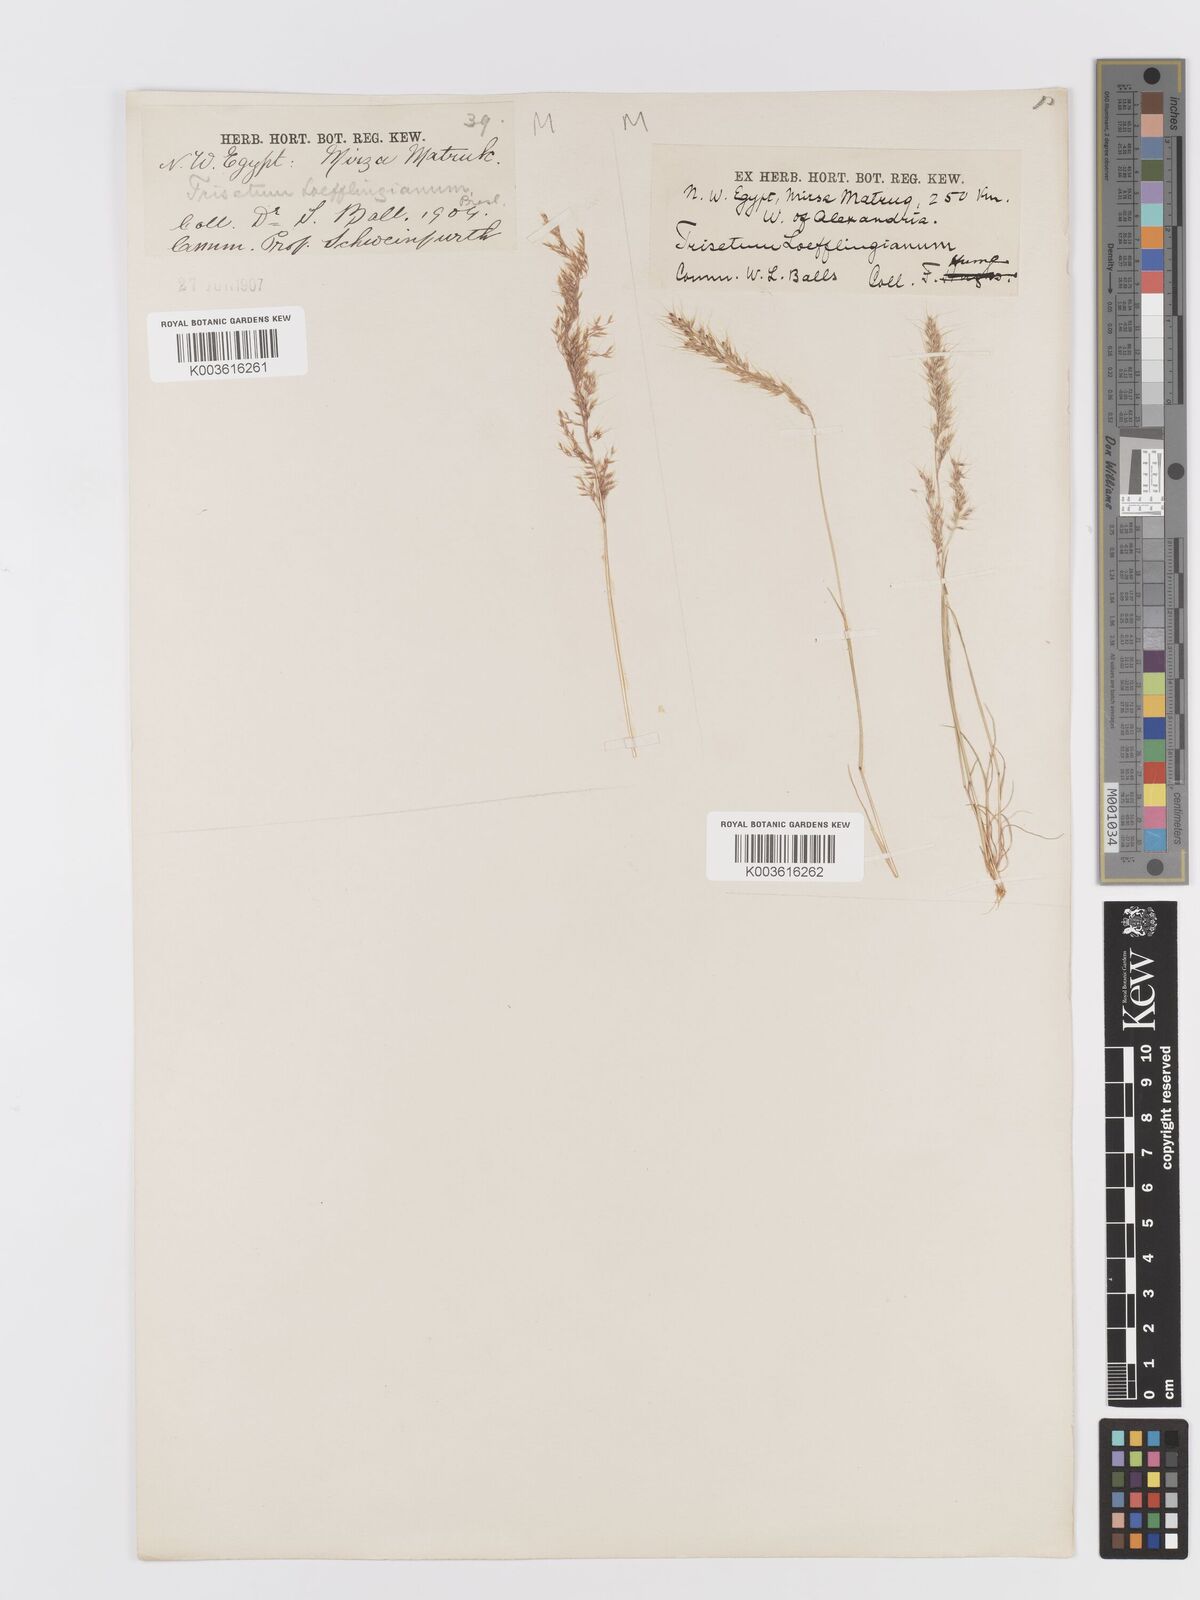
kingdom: Plantae
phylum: Tracheophyta
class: Liliopsida
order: Poales
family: Poaceae
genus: Trisetaria
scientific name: Trisetaria macrochaeta
